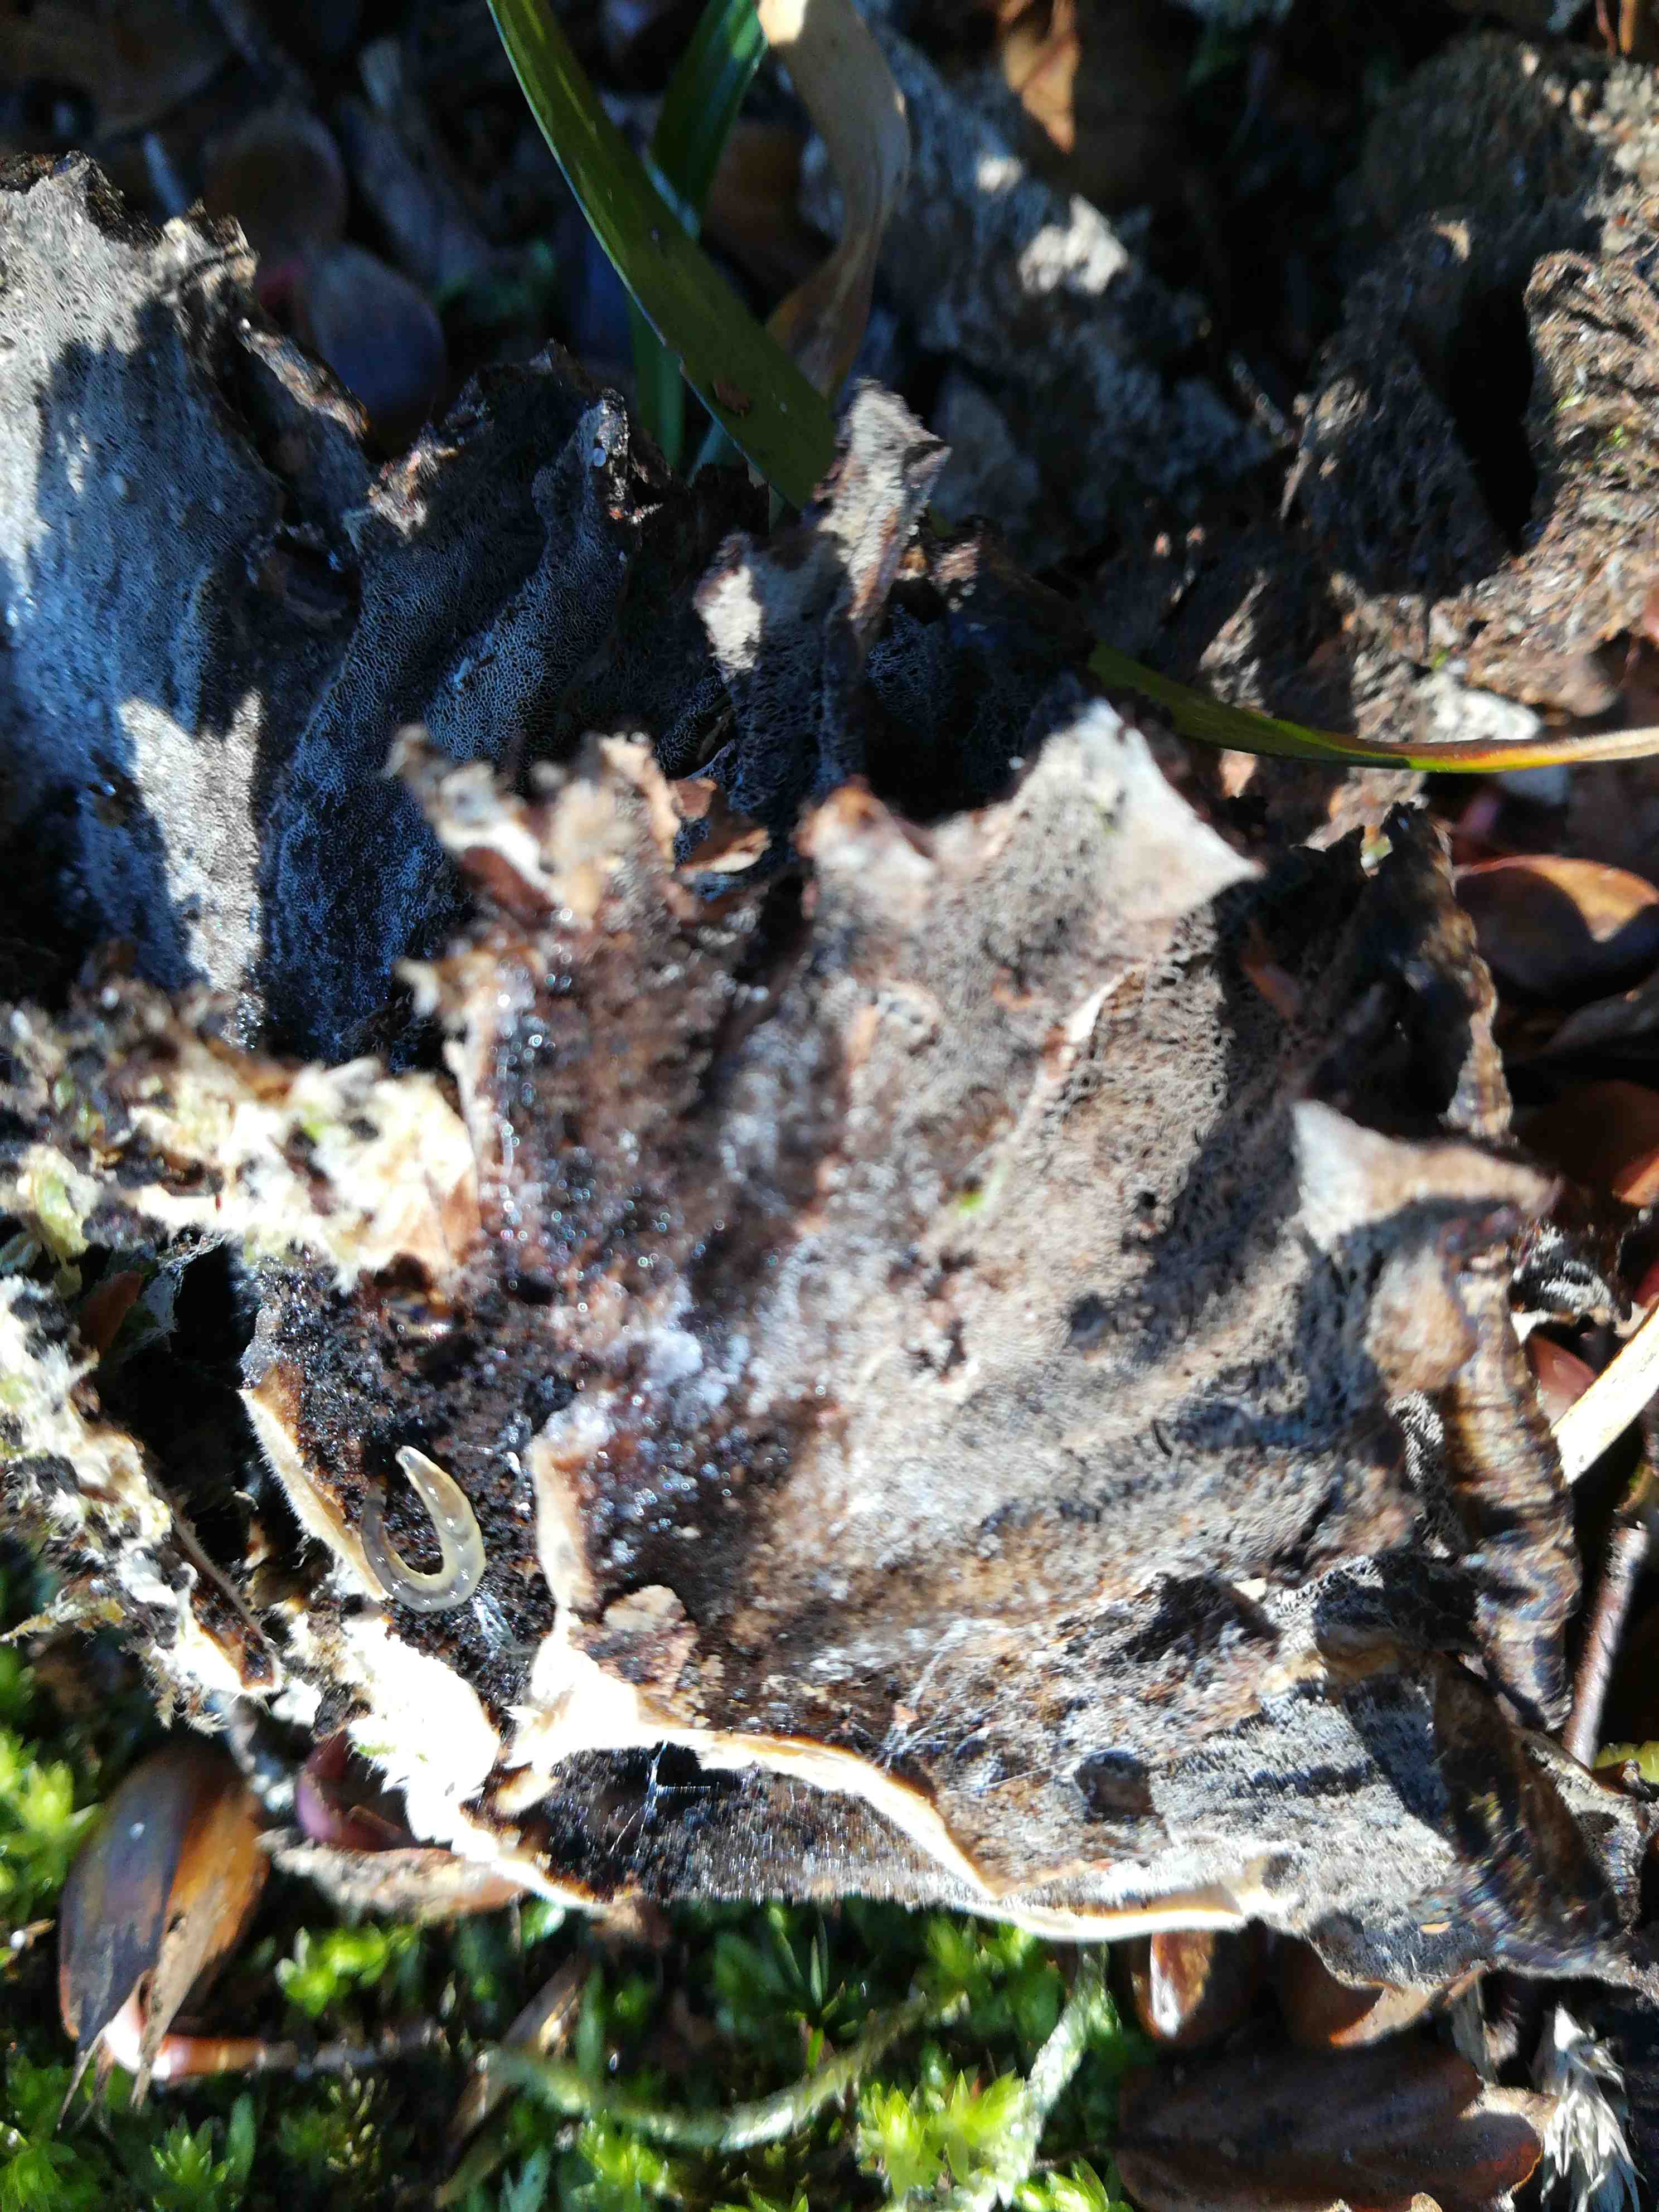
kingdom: Fungi
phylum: Basidiomycota
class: Agaricomycetes
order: Polyporales
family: Phanerochaetaceae
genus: Bjerkandera
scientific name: Bjerkandera adusta
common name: sveden sodporesvamp
